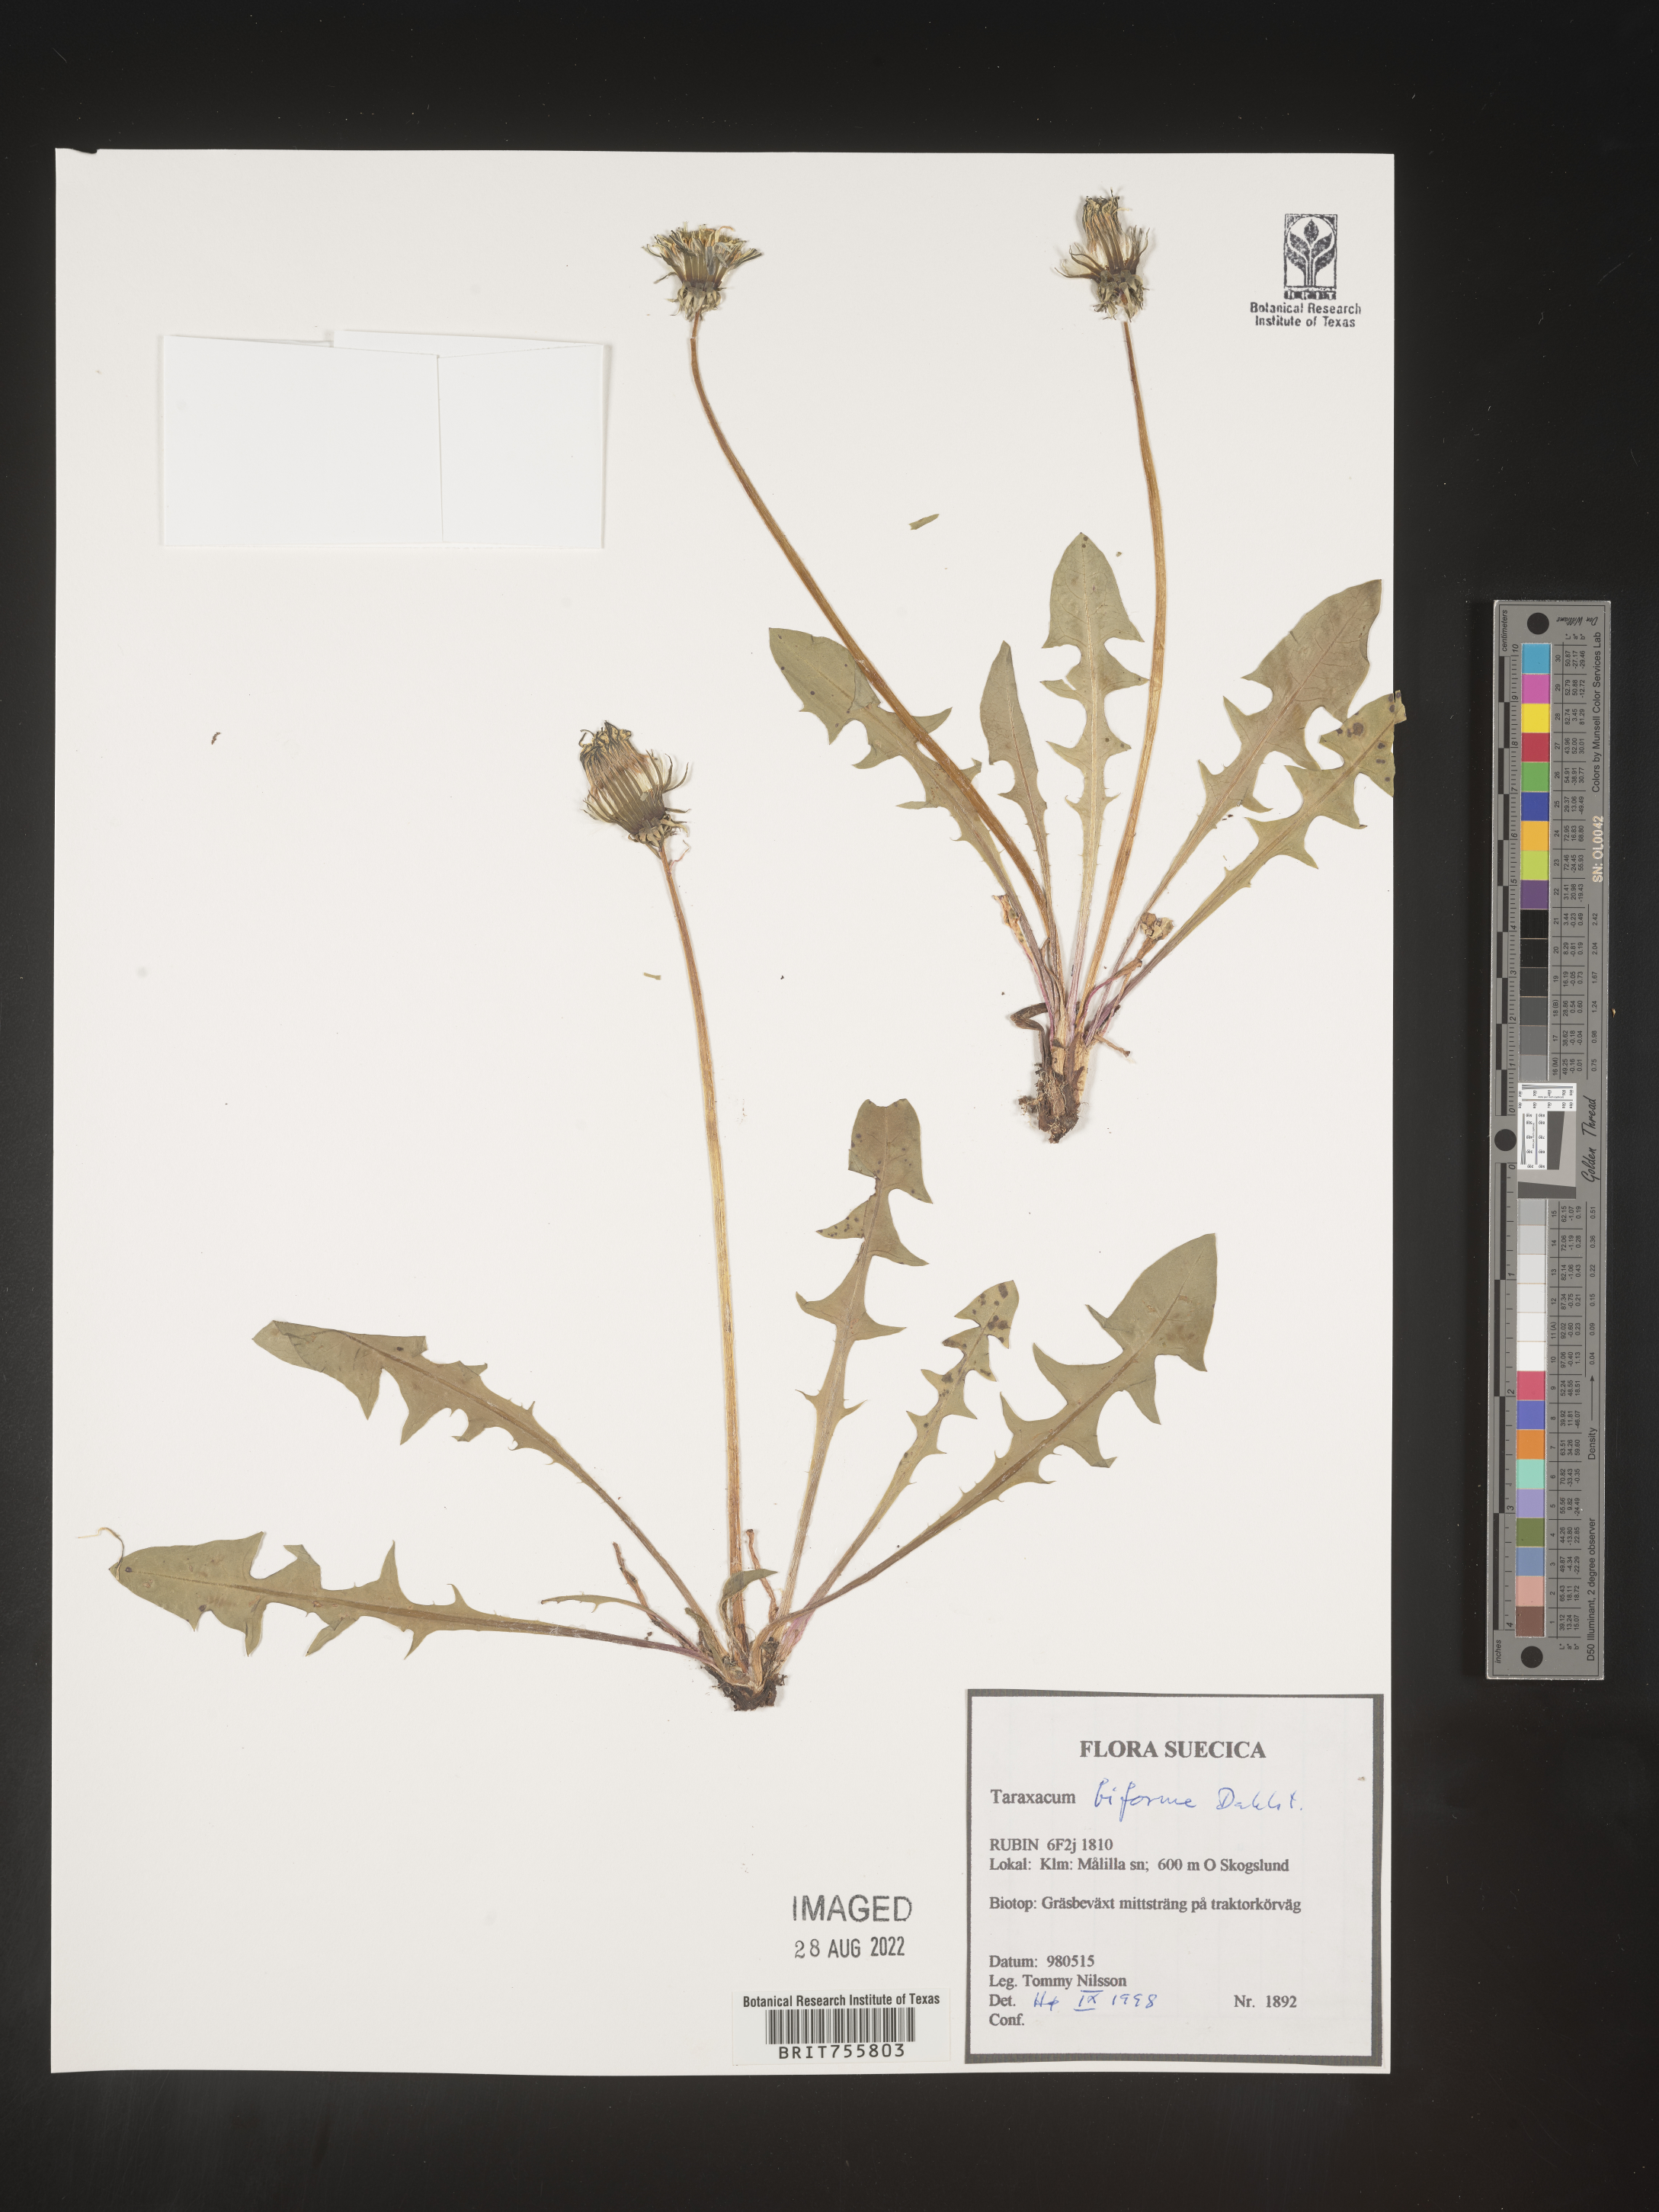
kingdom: Plantae
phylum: Tracheophyta
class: Magnoliopsida
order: Asterales
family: Asteraceae
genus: Taraxacum
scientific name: Taraxacum
